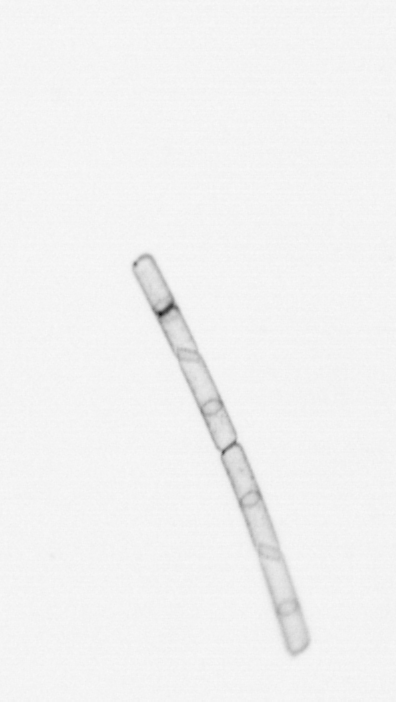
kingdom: Chromista
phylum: Ochrophyta
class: Bacillariophyceae
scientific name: Bacillariophyceae
